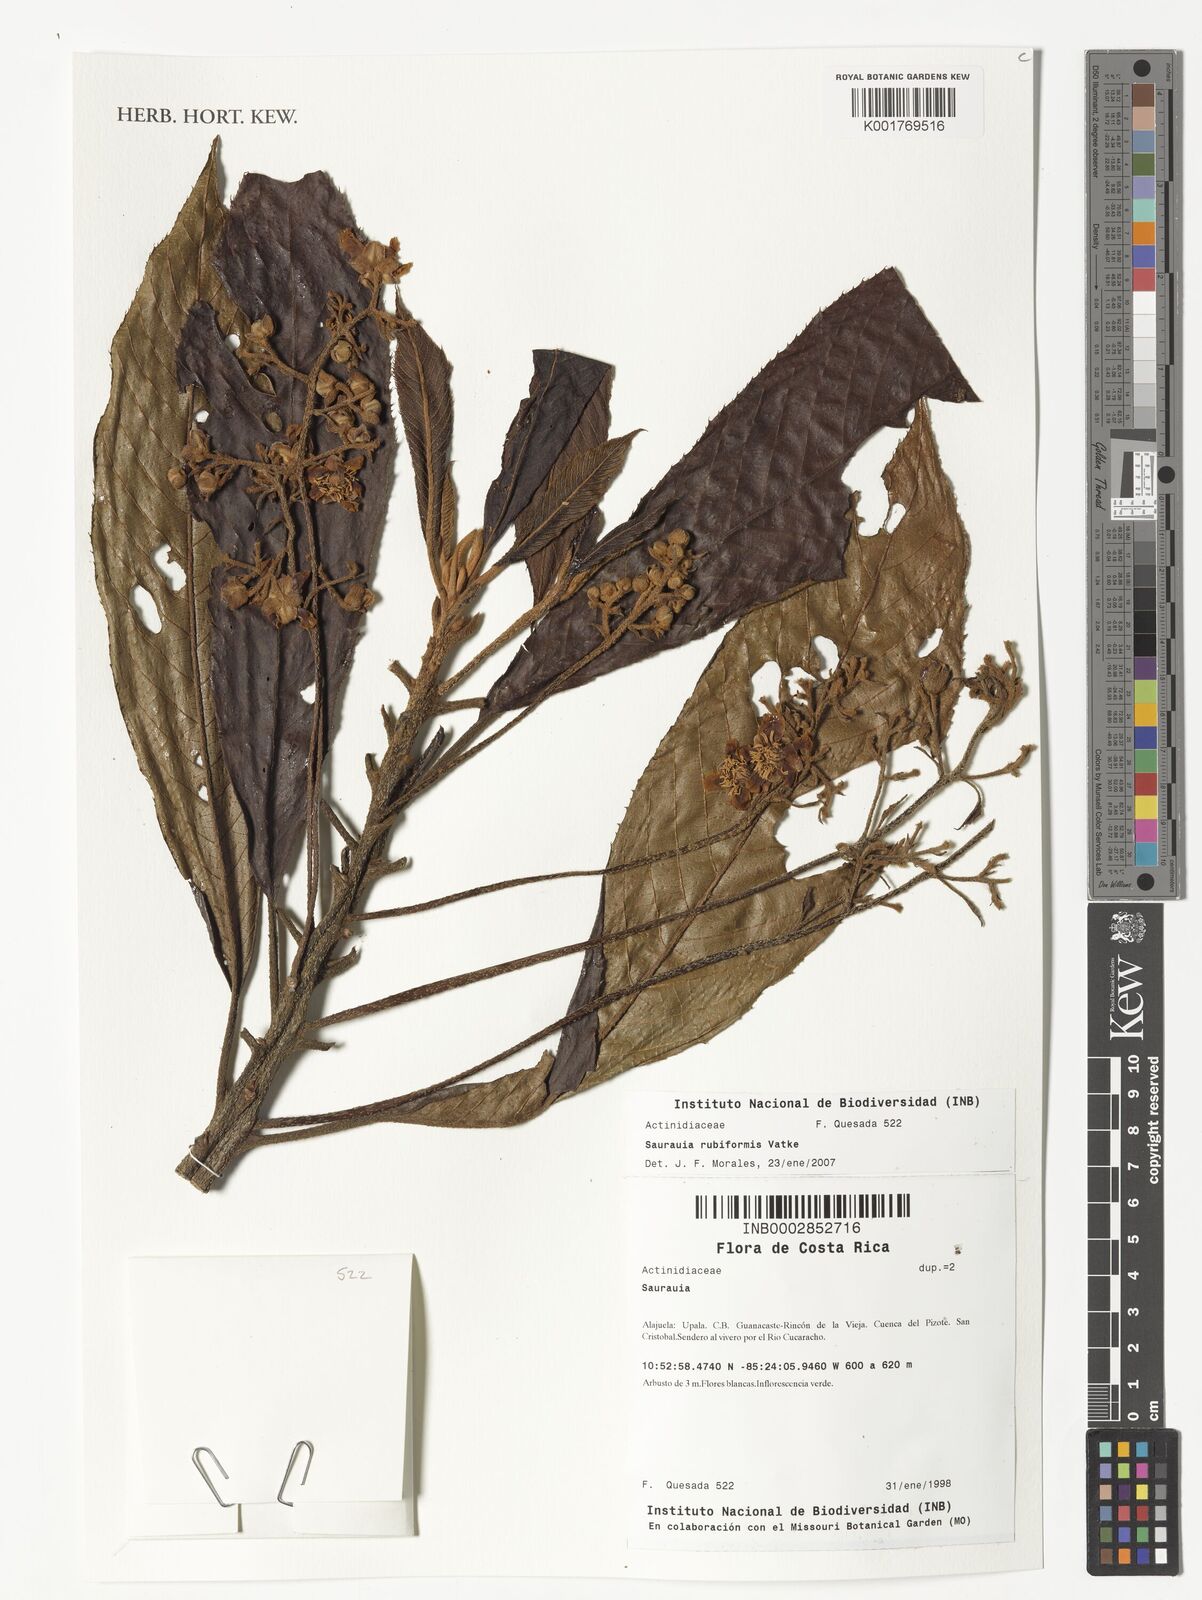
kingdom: Plantae
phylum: Tracheophyta
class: Magnoliopsida
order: Ericales
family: Actinidiaceae
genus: Saurauia
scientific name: Saurauia rubiformis
